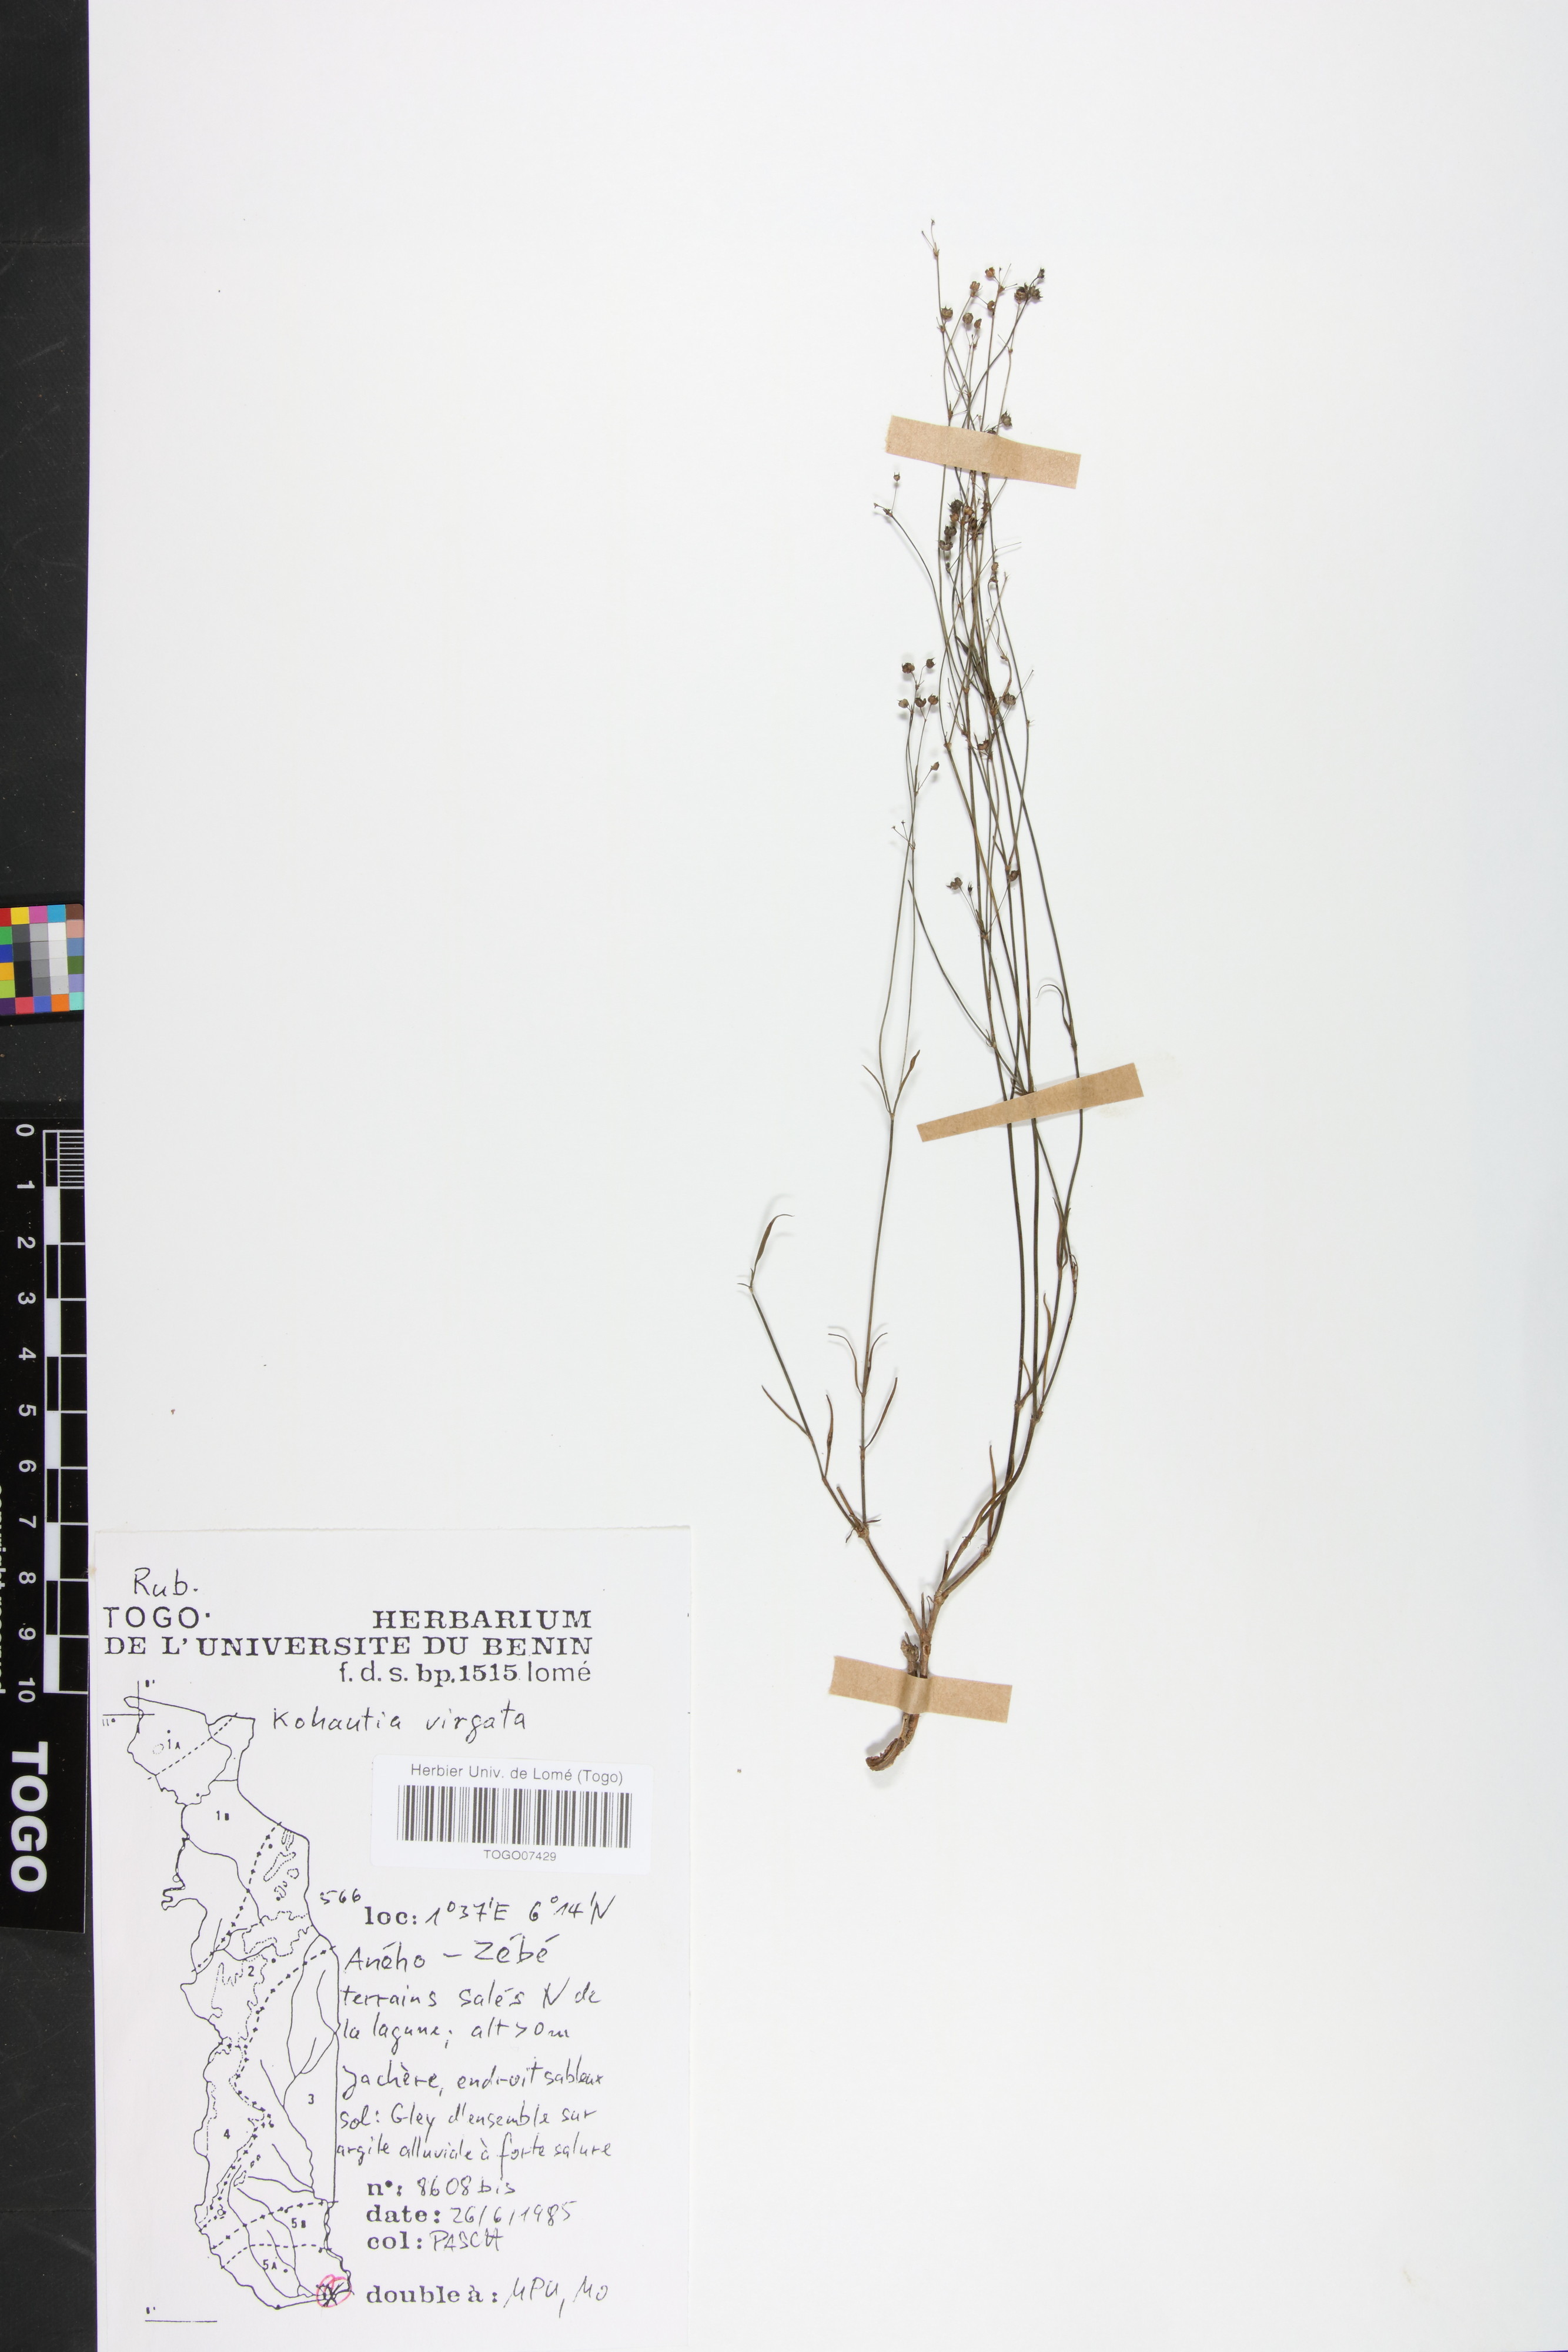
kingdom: Plantae
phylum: Tracheophyta
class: Magnoliopsida
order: Gentianales
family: Rubiaceae
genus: Cordylostigma
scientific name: Cordylostigma virgatum
